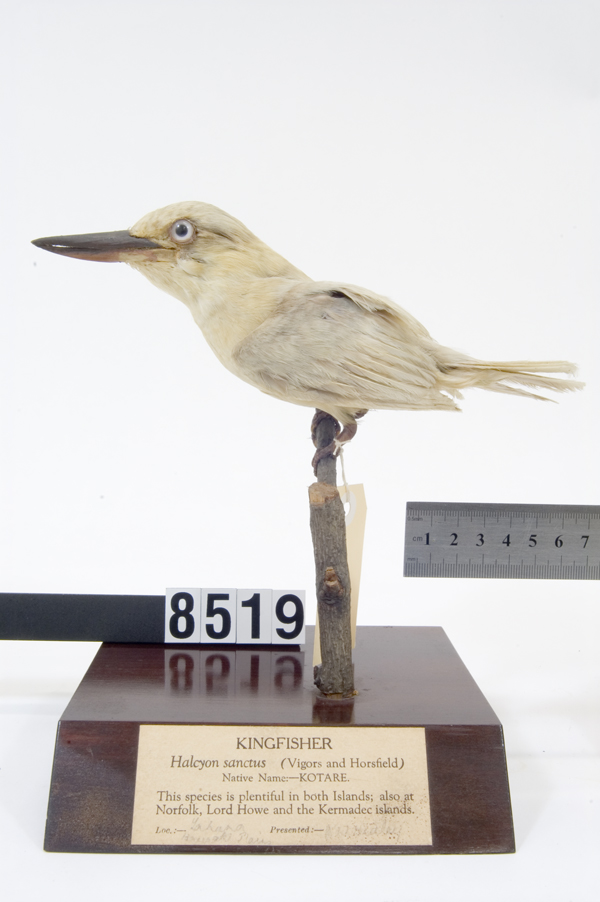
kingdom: Animalia
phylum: Chordata
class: Aves
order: Coraciiformes
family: Alcedinidae
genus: Todiramphus
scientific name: Todiramphus sanctus
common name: Sacred kingfisher
